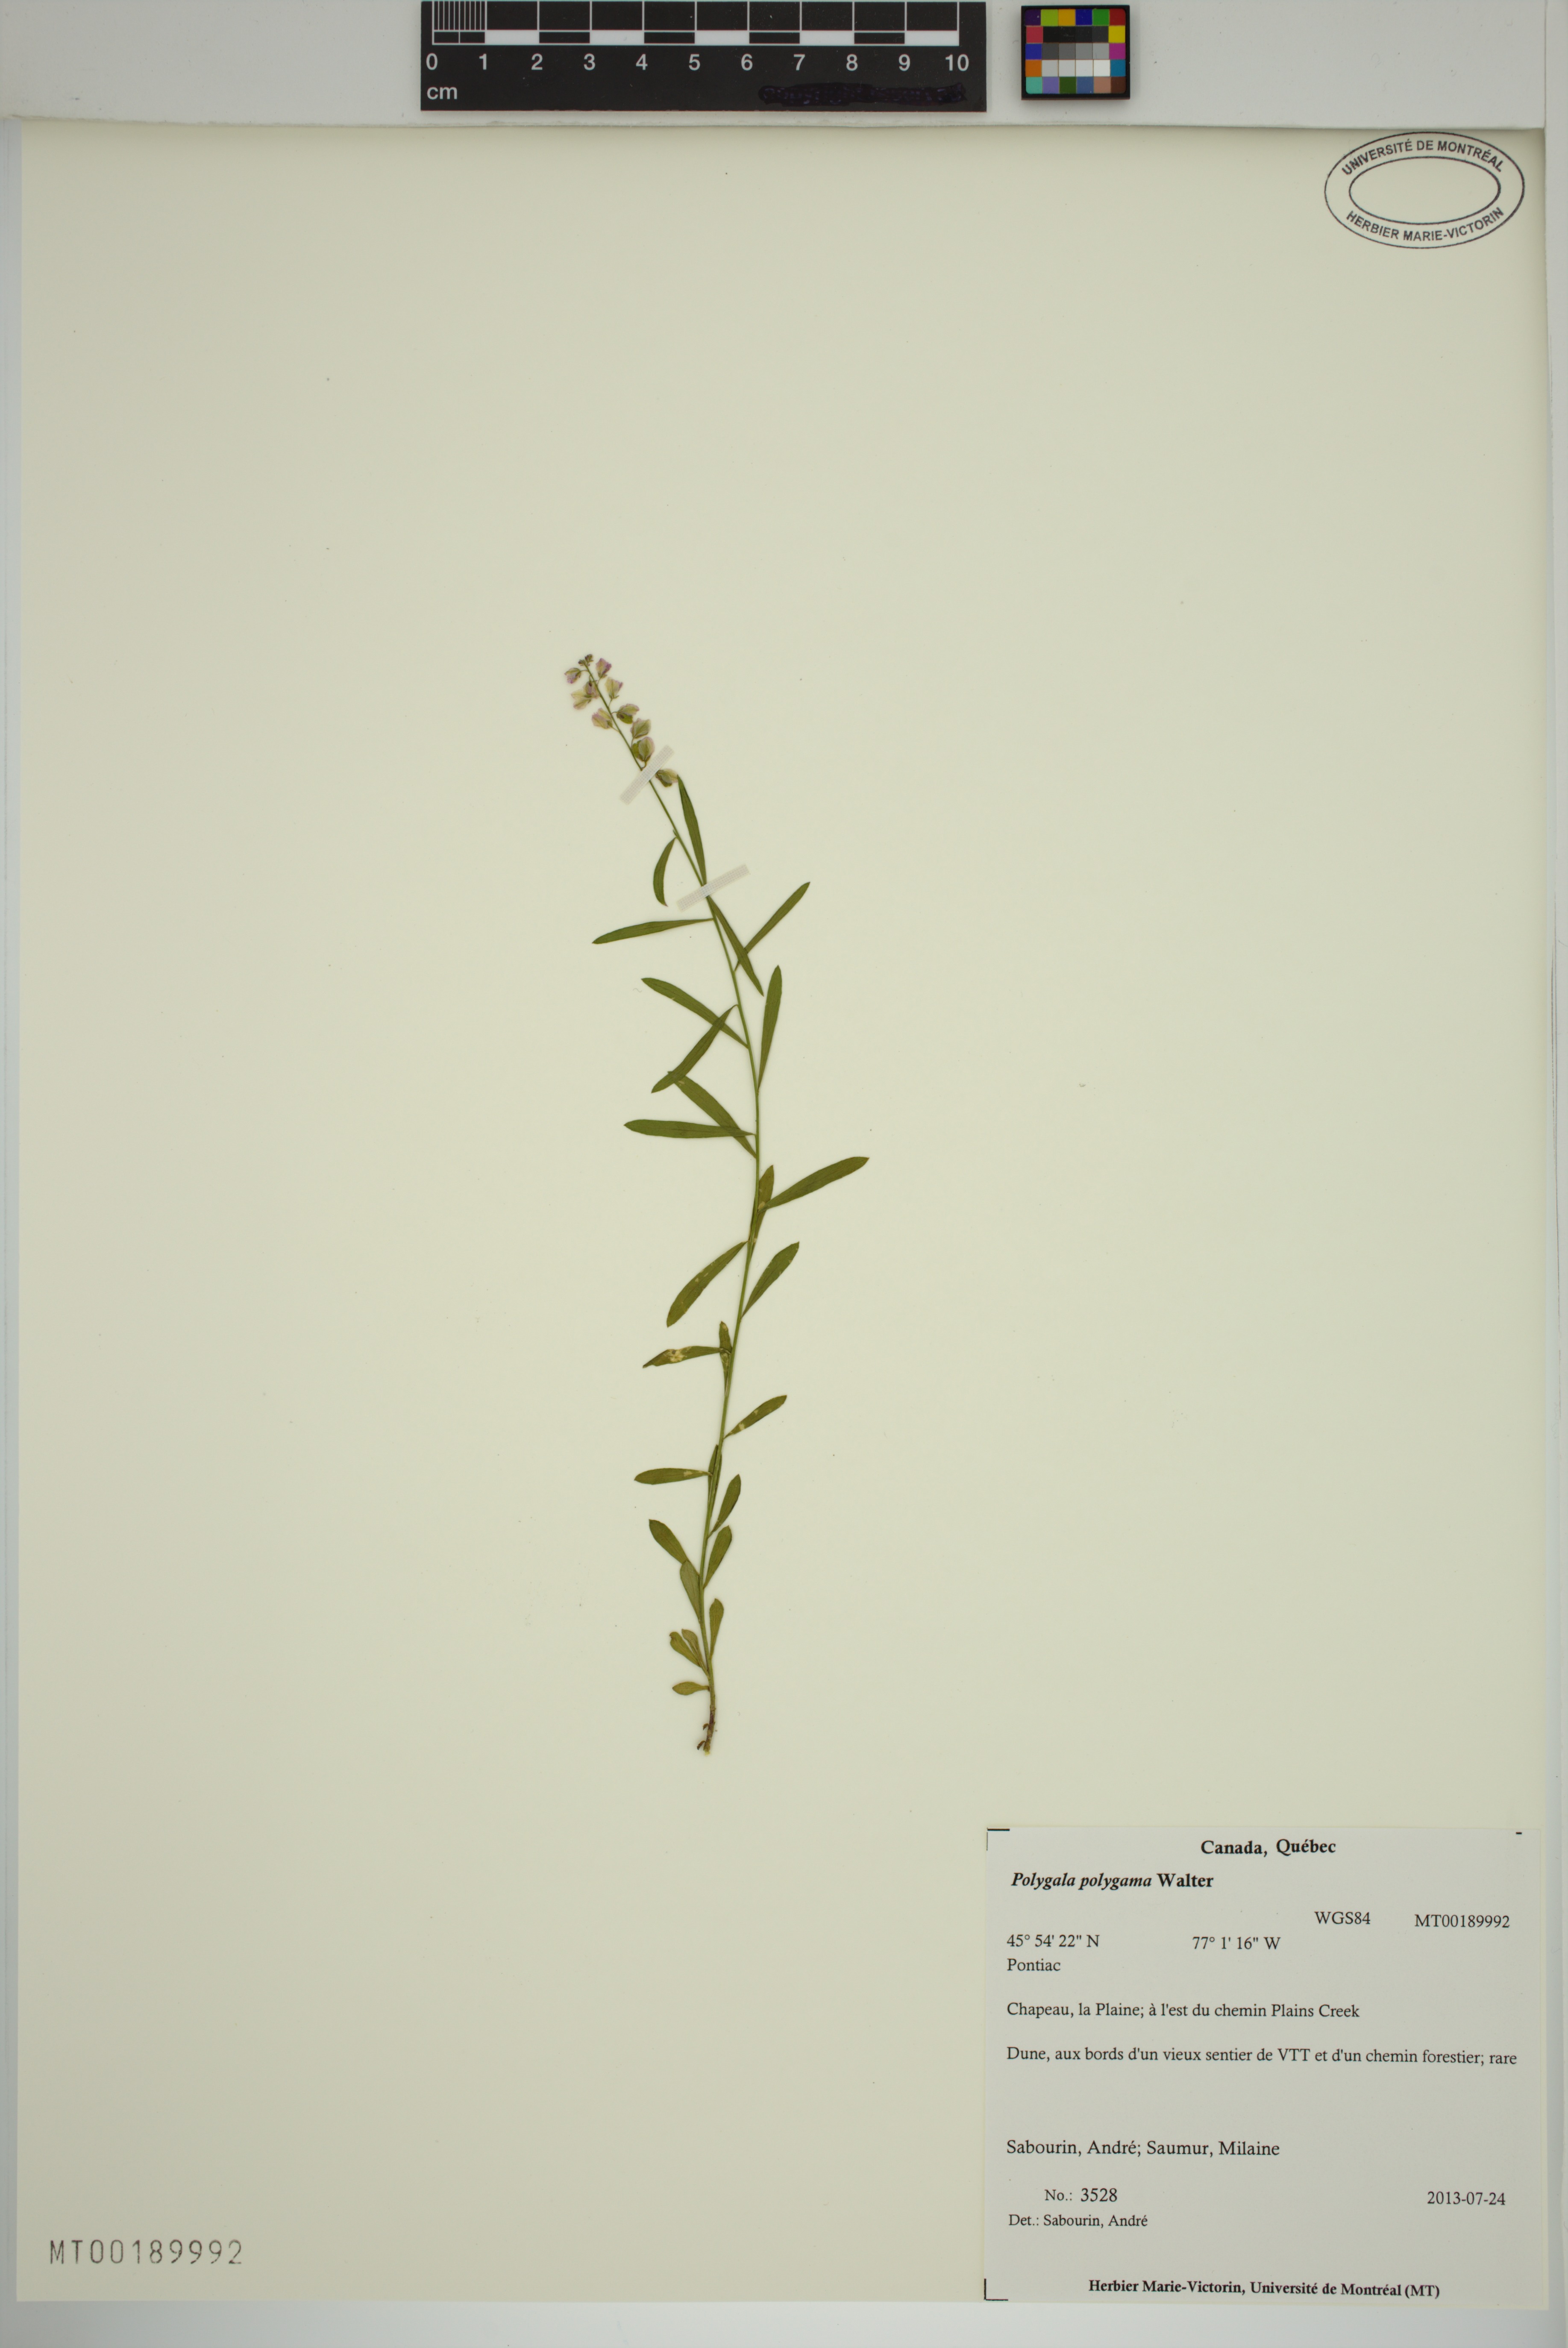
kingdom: Plantae
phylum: Tracheophyta
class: Magnoliopsida
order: Fabales
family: Polygalaceae
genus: Polygala
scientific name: Polygala polygama
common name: Bitter milkwort
